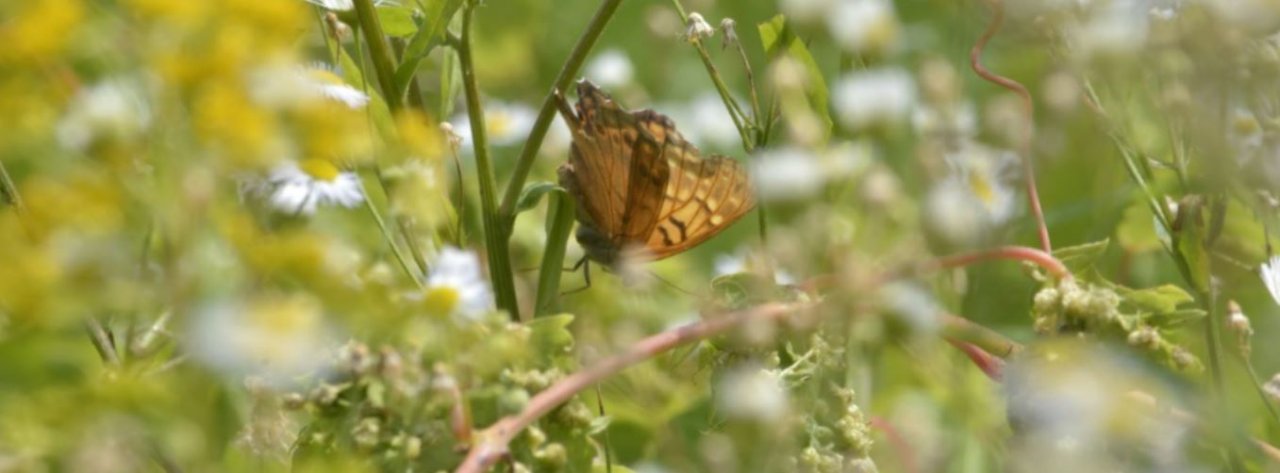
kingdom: Animalia
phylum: Arthropoda
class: Insecta
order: Lepidoptera
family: Nymphalidae
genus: Asterocampa
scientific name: Asterocampa clyton
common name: Tawny Emperor
